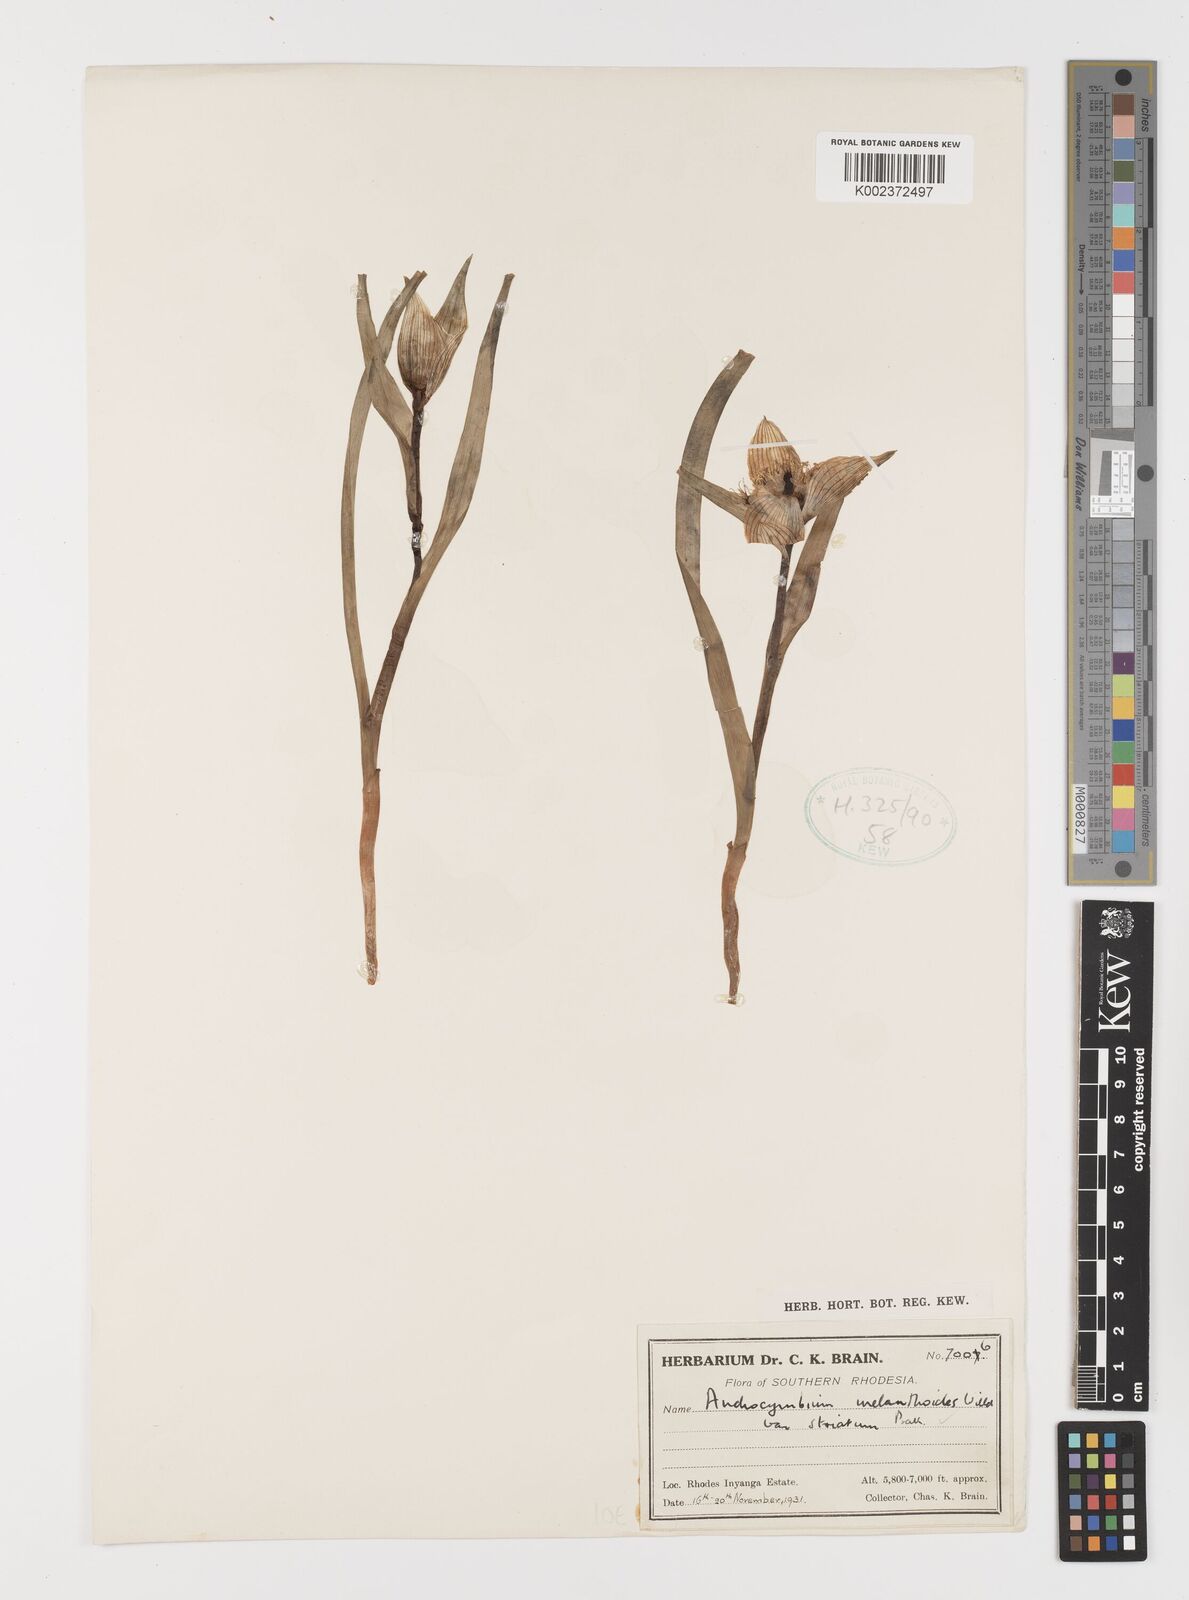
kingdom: Plantae
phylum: Tracheophyta
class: Liliopsida
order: Liliales
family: Colchicaceae
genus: Colchicum
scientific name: Colchicum striatum
